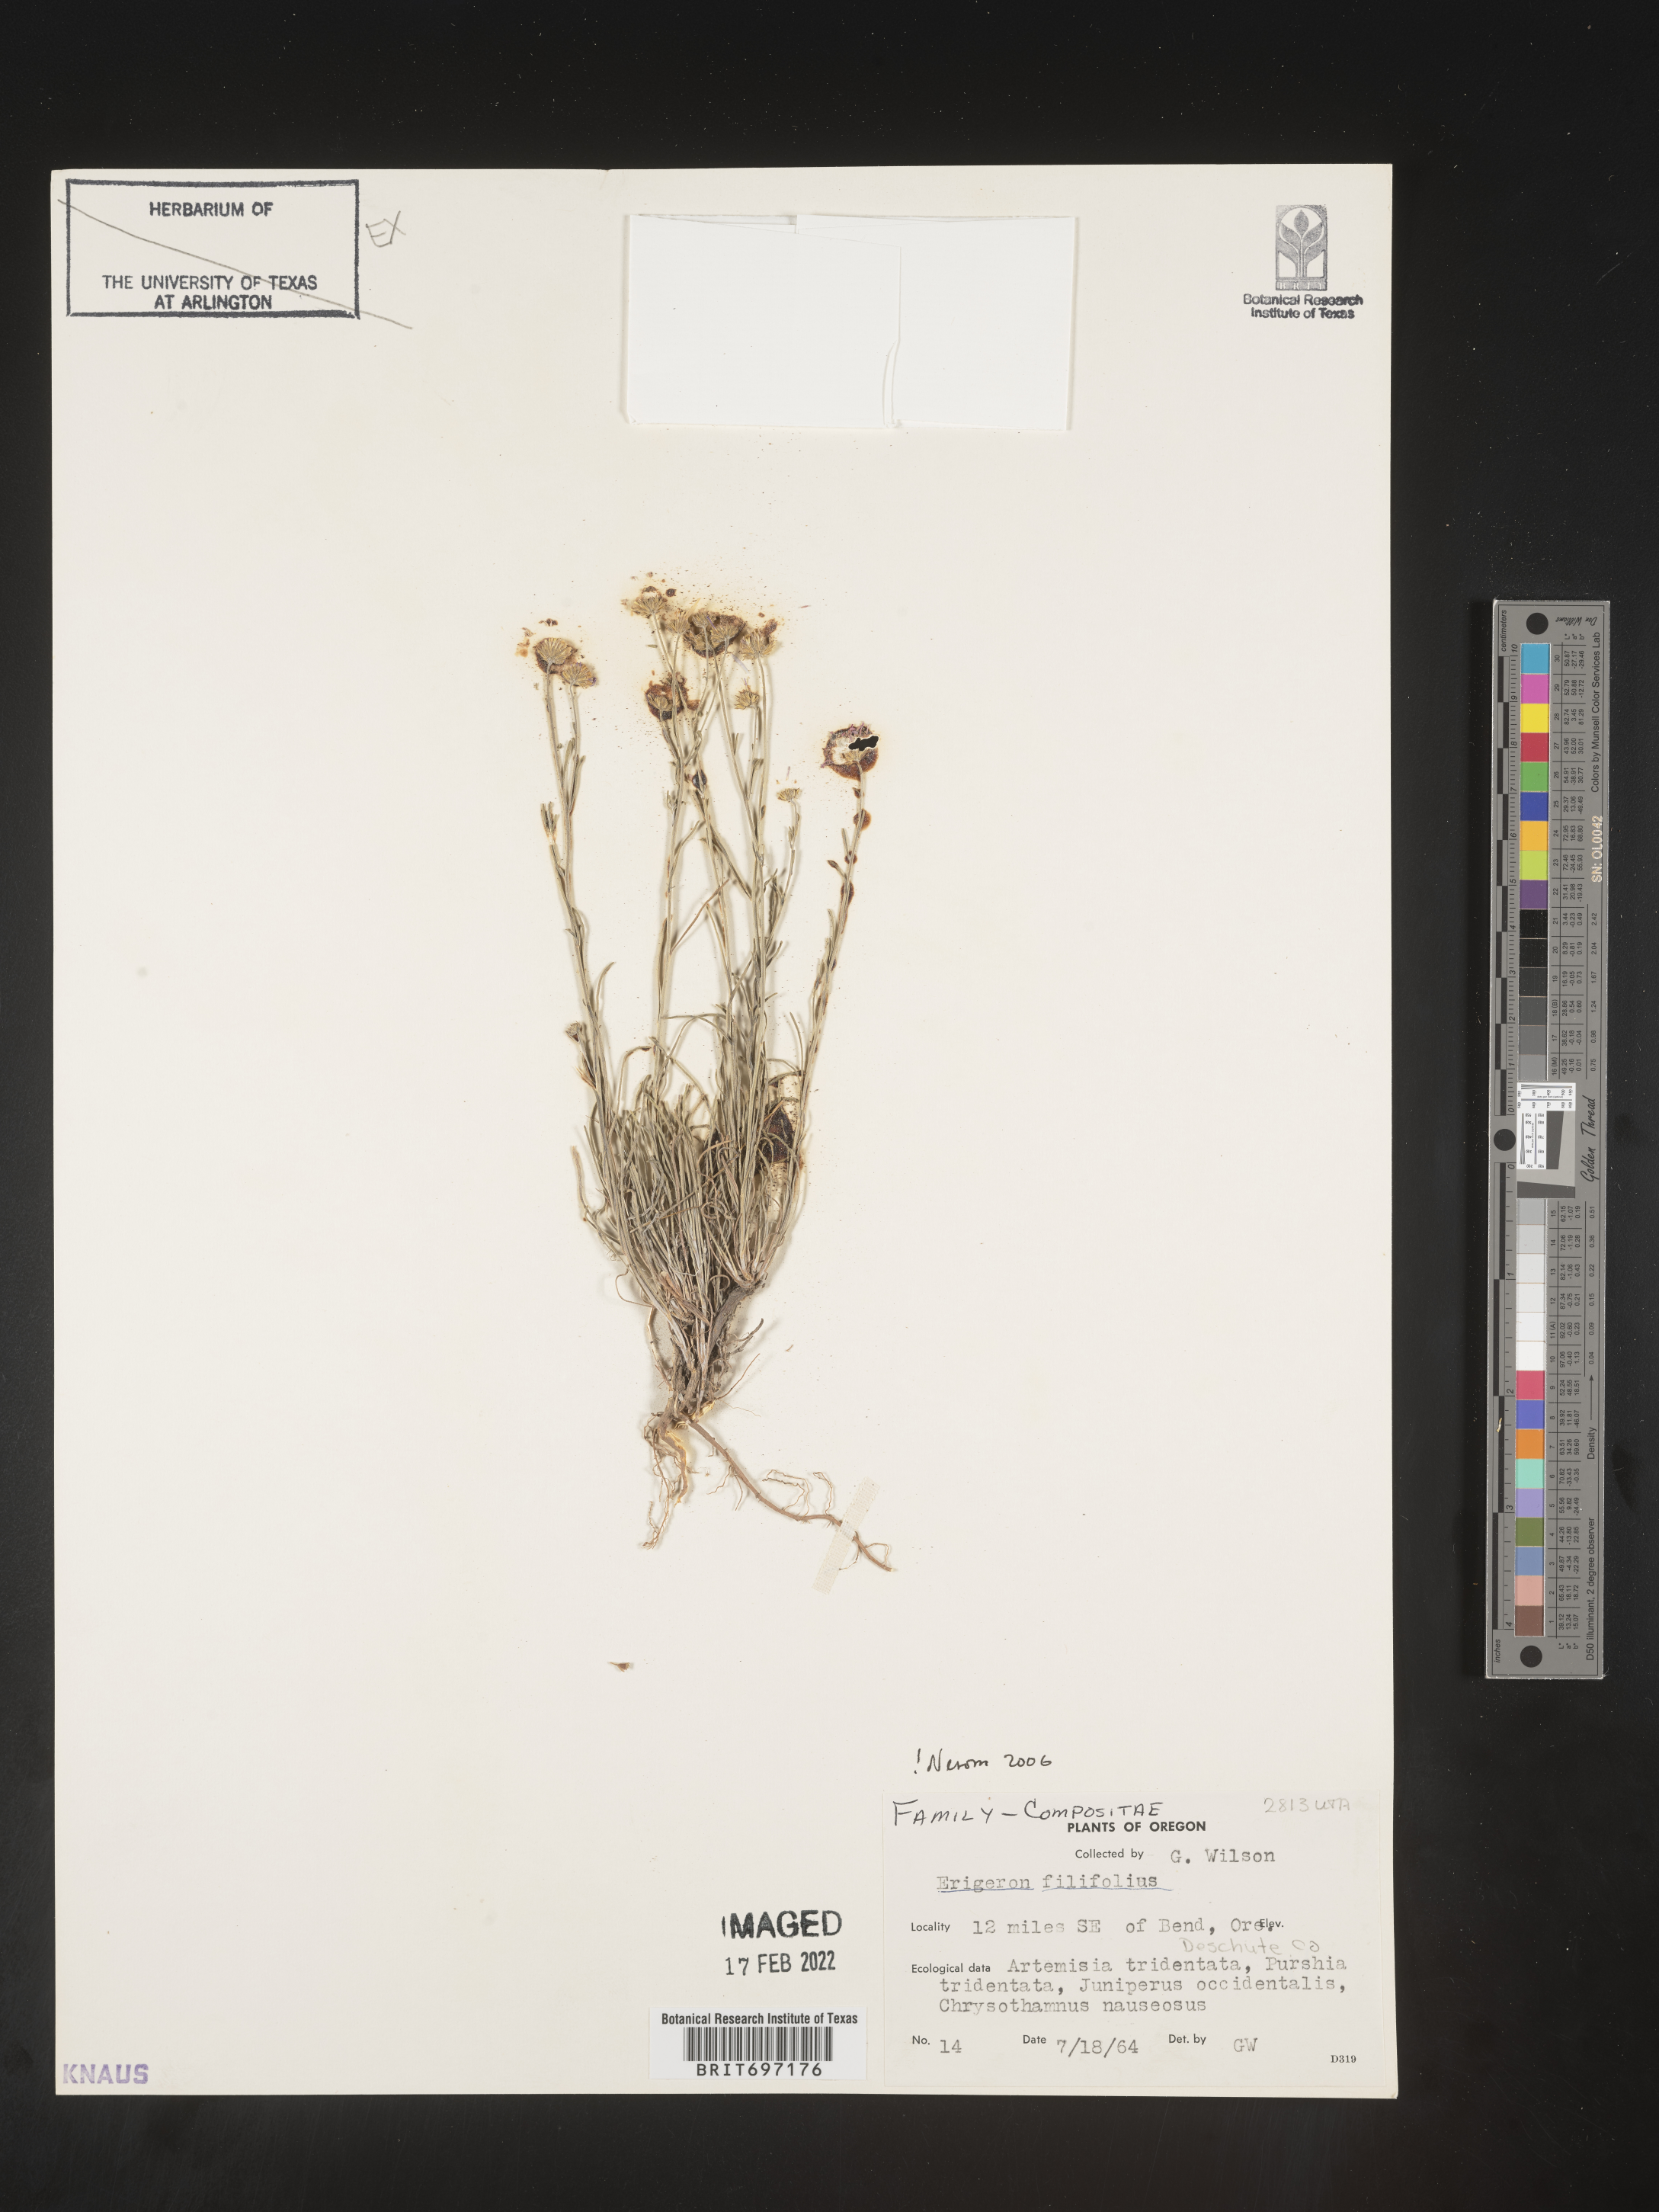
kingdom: Plantae
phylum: Tracheophyta
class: Magnoliopsida
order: Asterales
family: Asteraceae
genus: Erigeron
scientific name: Erigeron filifolius
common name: Threadleaf fleabane
